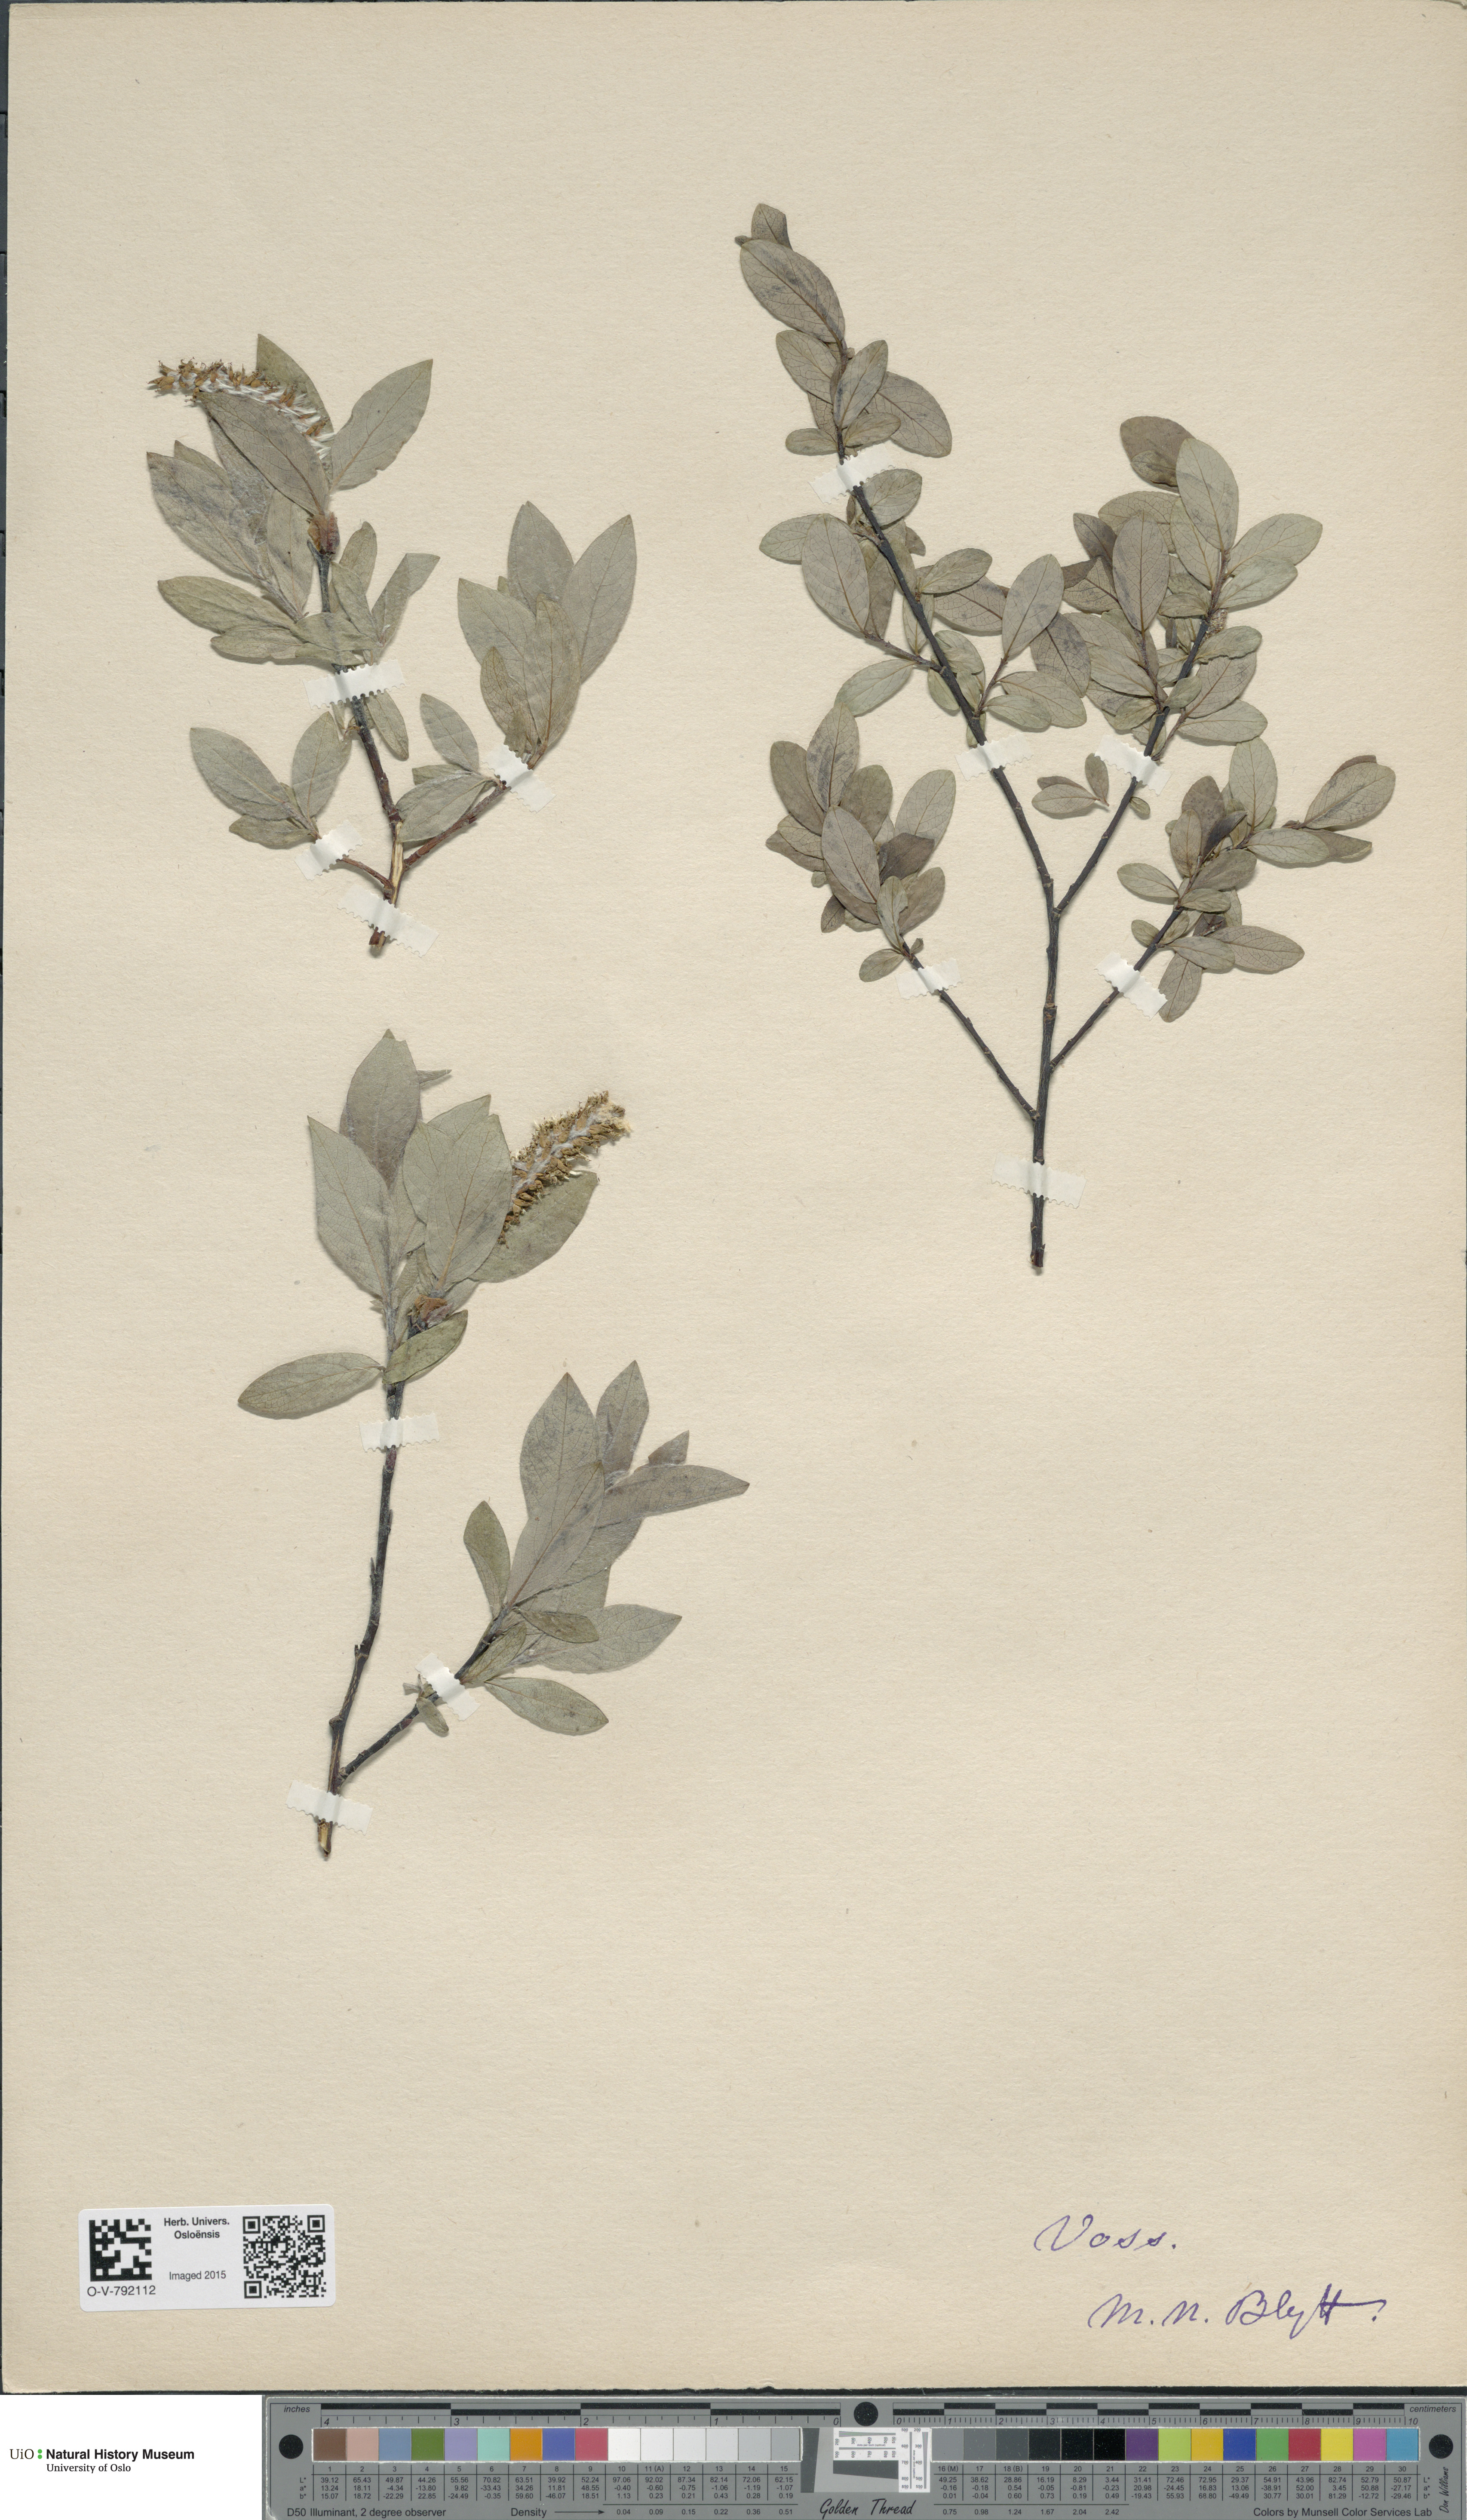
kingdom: Plantae
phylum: Tracheophyta
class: Magnoliopsida
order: Malpighiales
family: Salicaceae
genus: Salix
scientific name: Salix hastata
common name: Halberd willow
